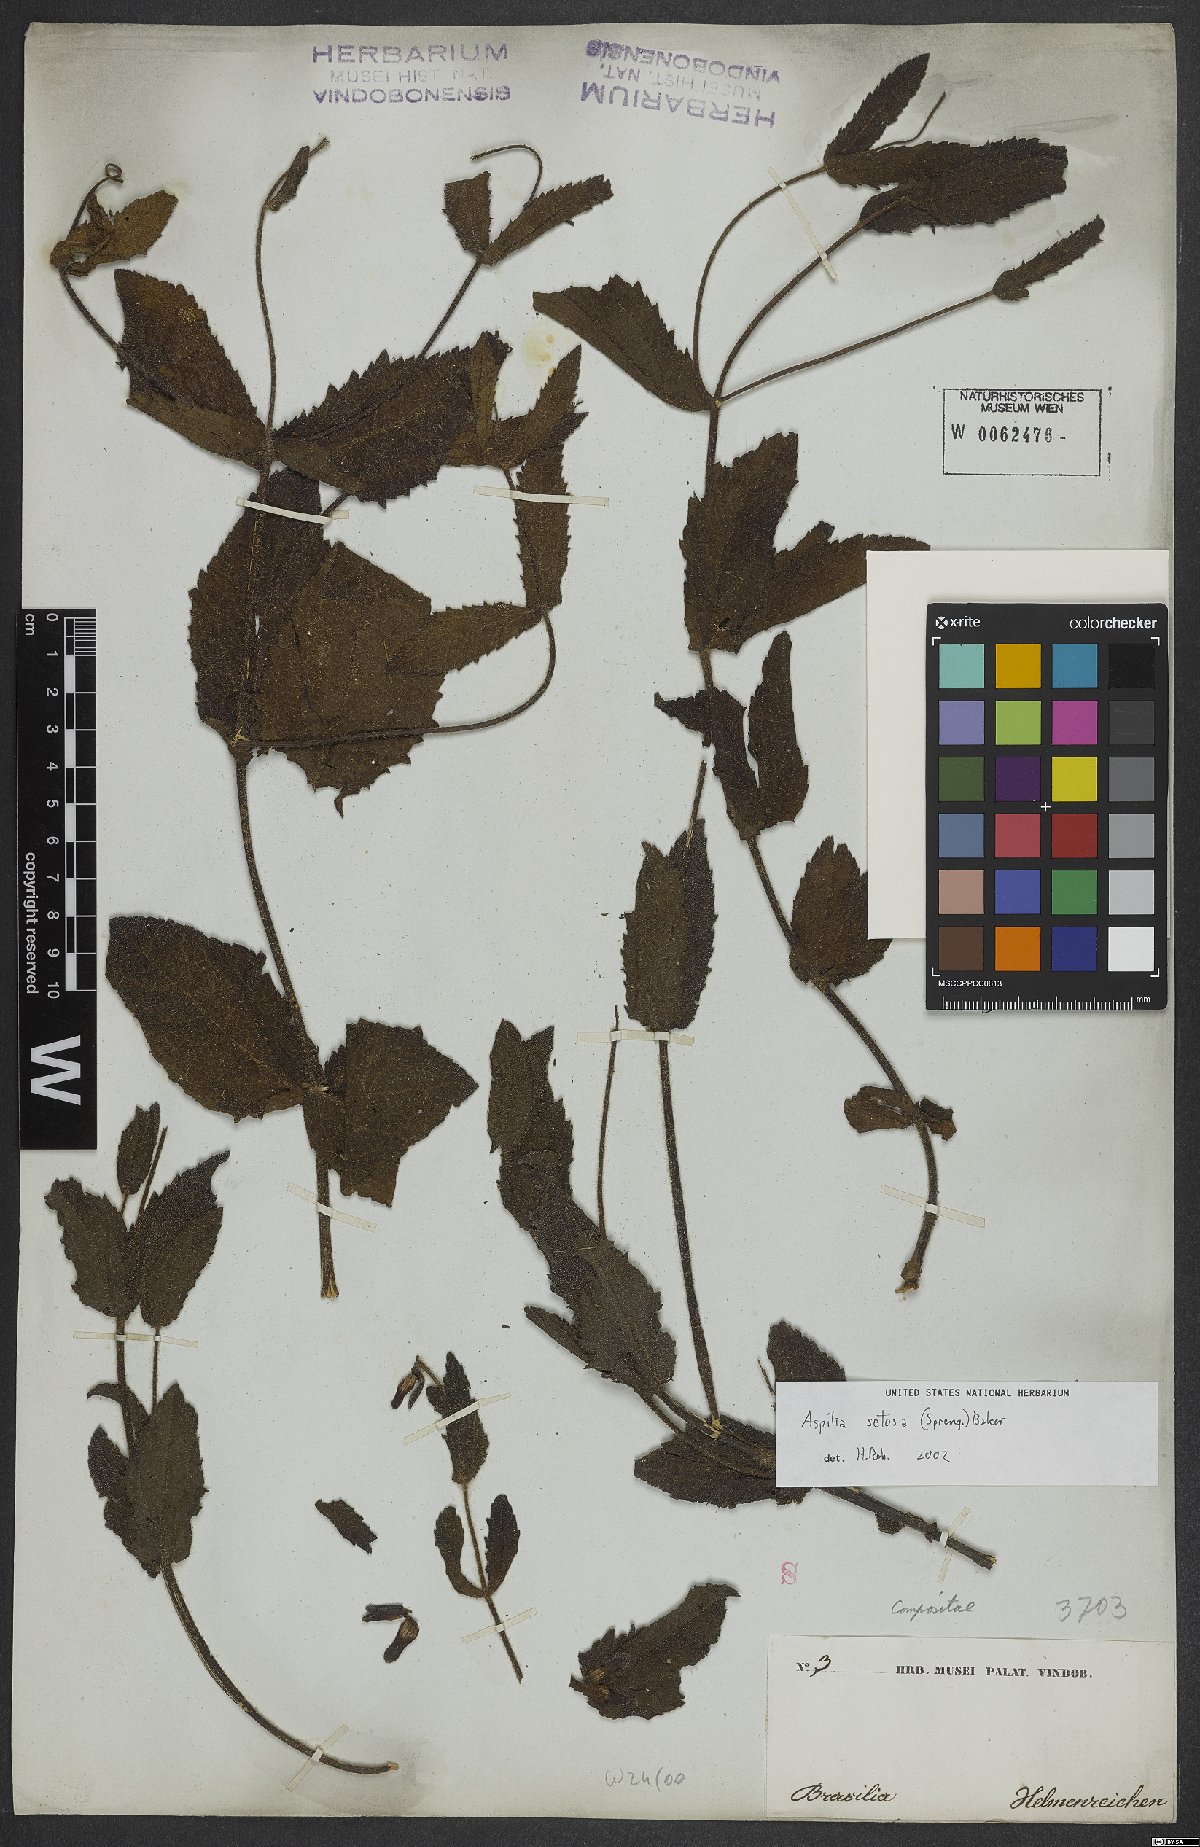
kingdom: Plantae
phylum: Tracheophyta
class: Magnoliopsida
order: Asterales
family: Asteraceae
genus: Wedelia
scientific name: Wedelia montevidensis
